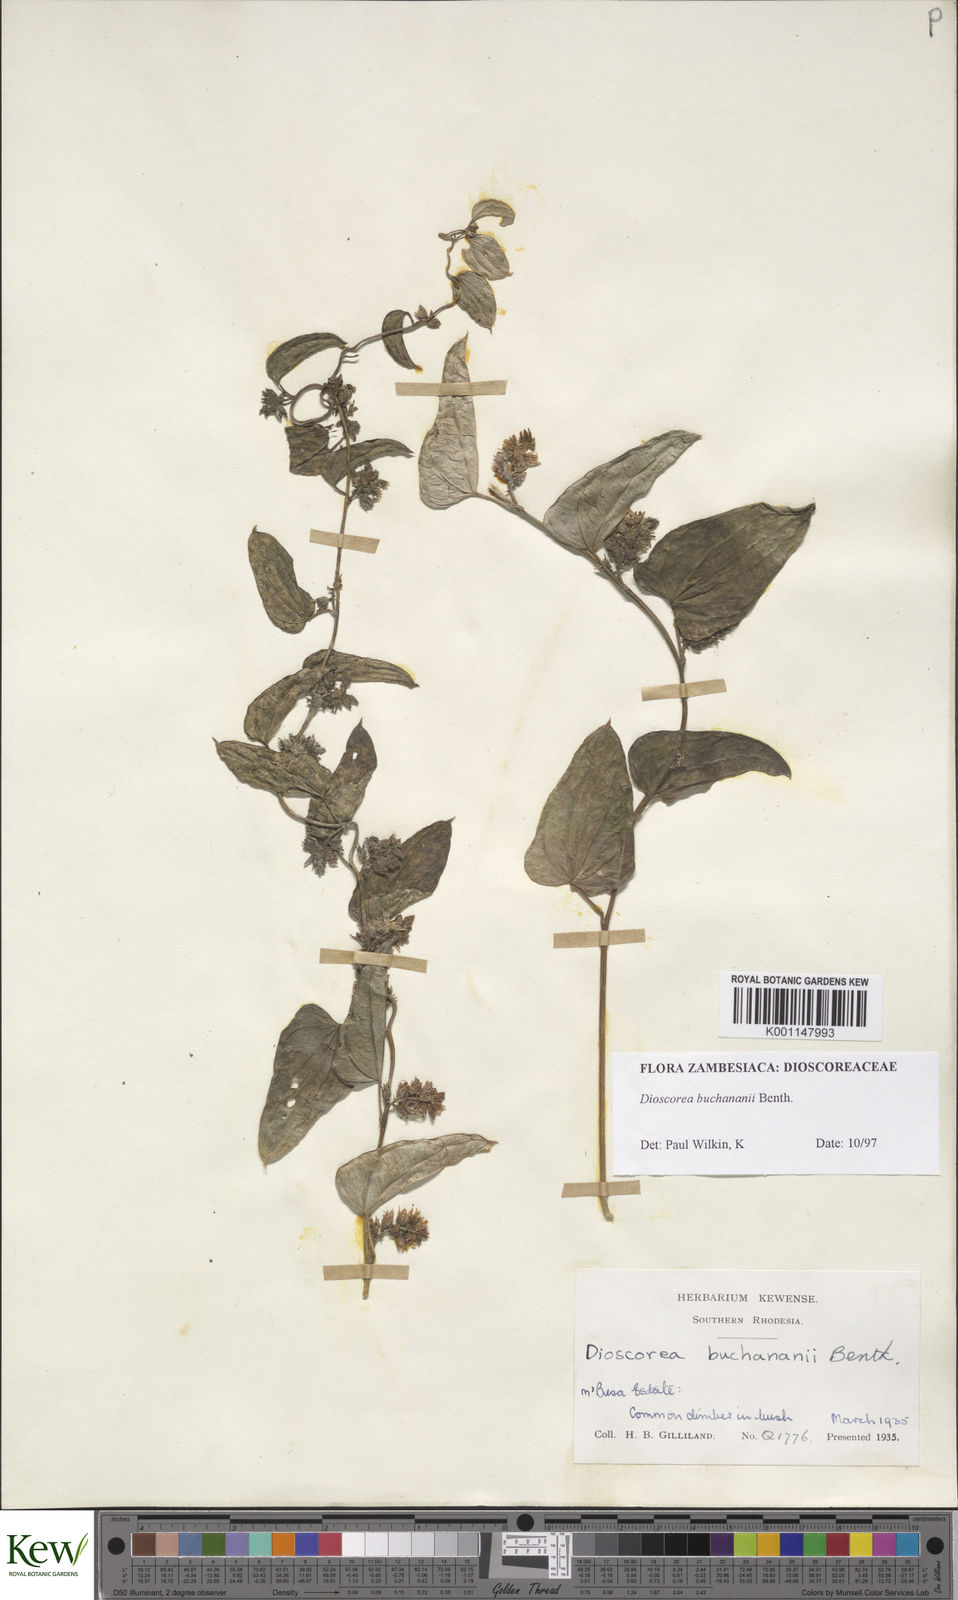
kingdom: Plantae
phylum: Tracheophyta
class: Liliopsida
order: Dioscoreales
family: Dioscoreaceae
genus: Dioscorea
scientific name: Dioscorea buchananii
